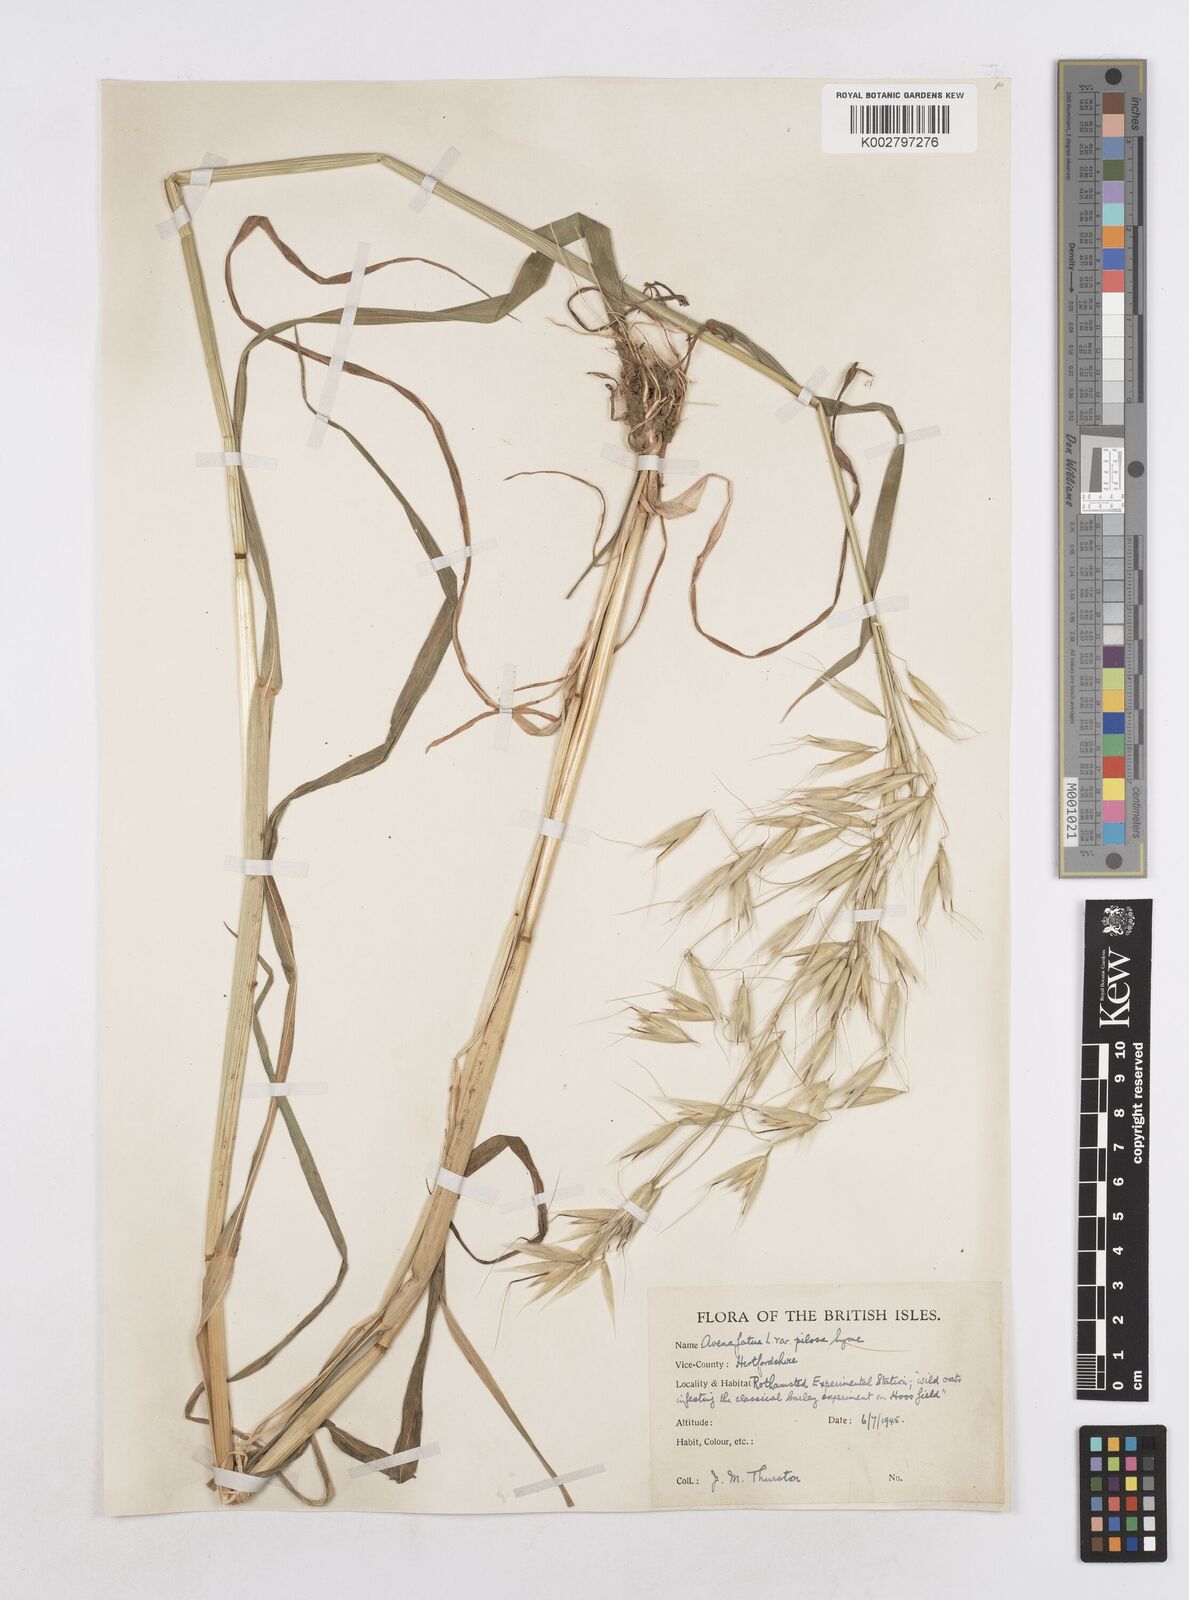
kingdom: Plantae
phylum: Tracheophyta
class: Liliopsida
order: Poales
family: Poaceae
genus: Avena
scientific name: Avena fatua
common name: Wild oat
